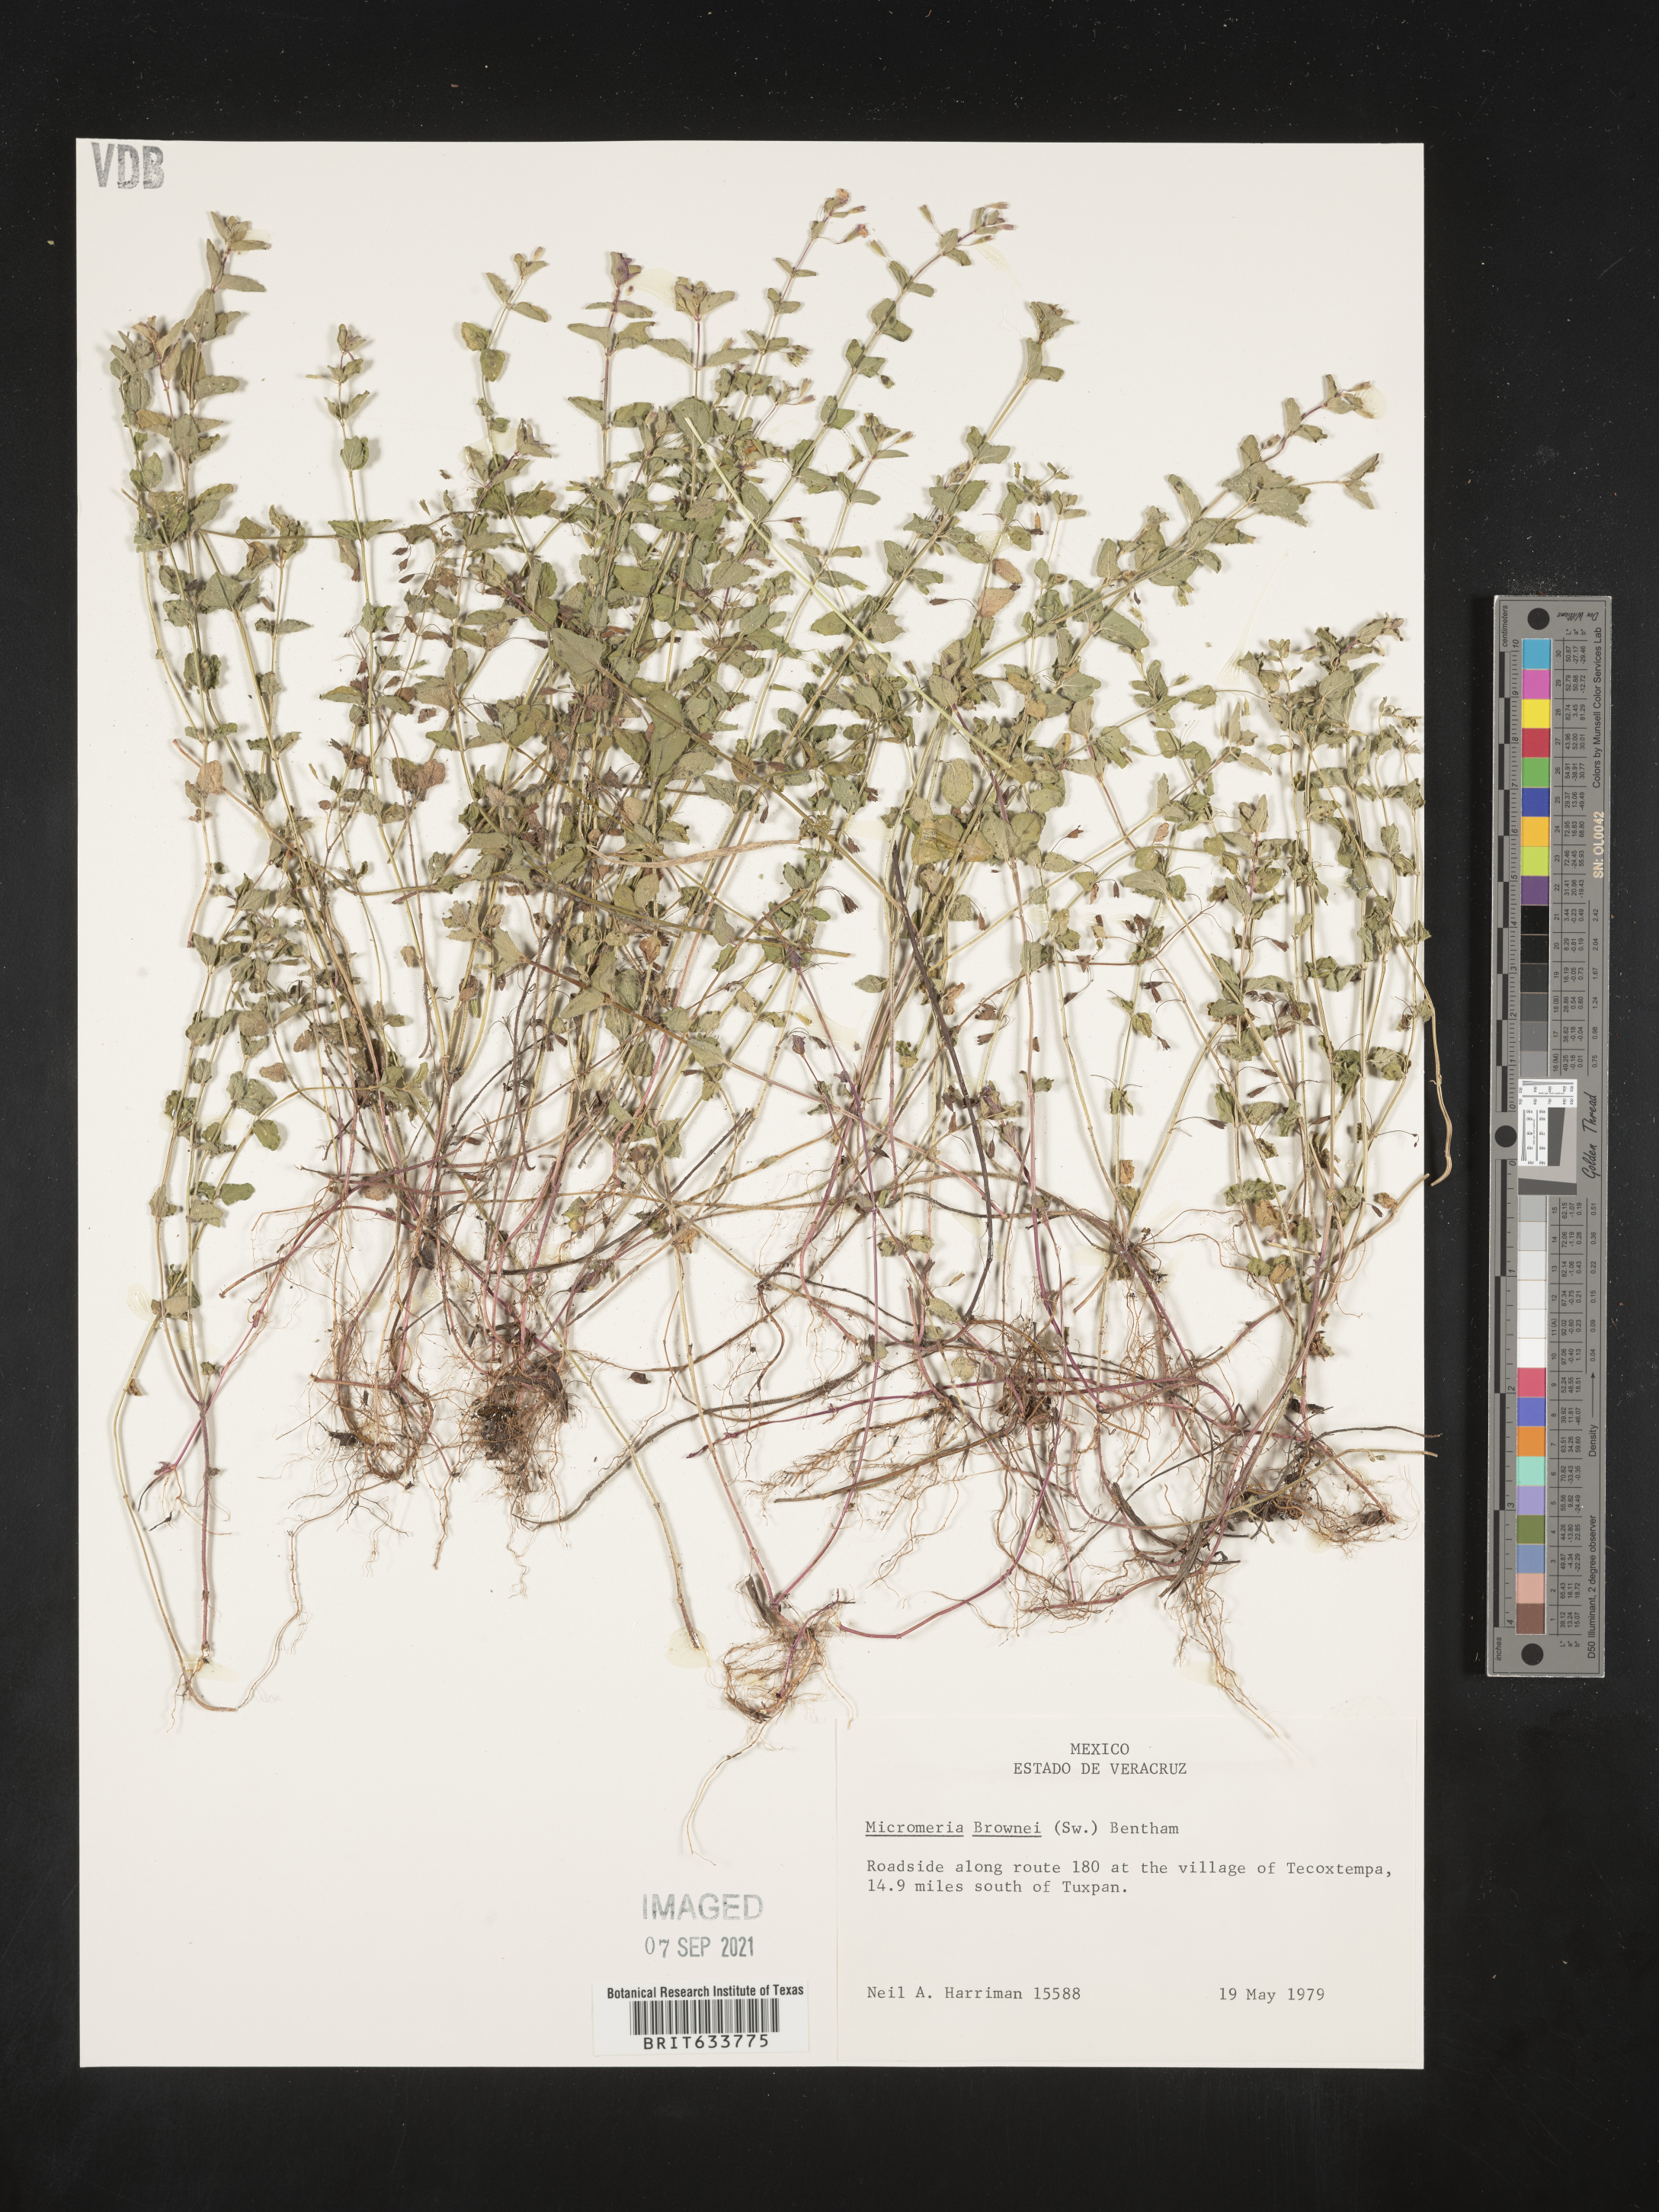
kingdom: Plantae
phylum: Tracheophyta
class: Magnoliopsida
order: Lamiales
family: Lamiaceae
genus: Clinopodium
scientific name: Clinopodium brownei
